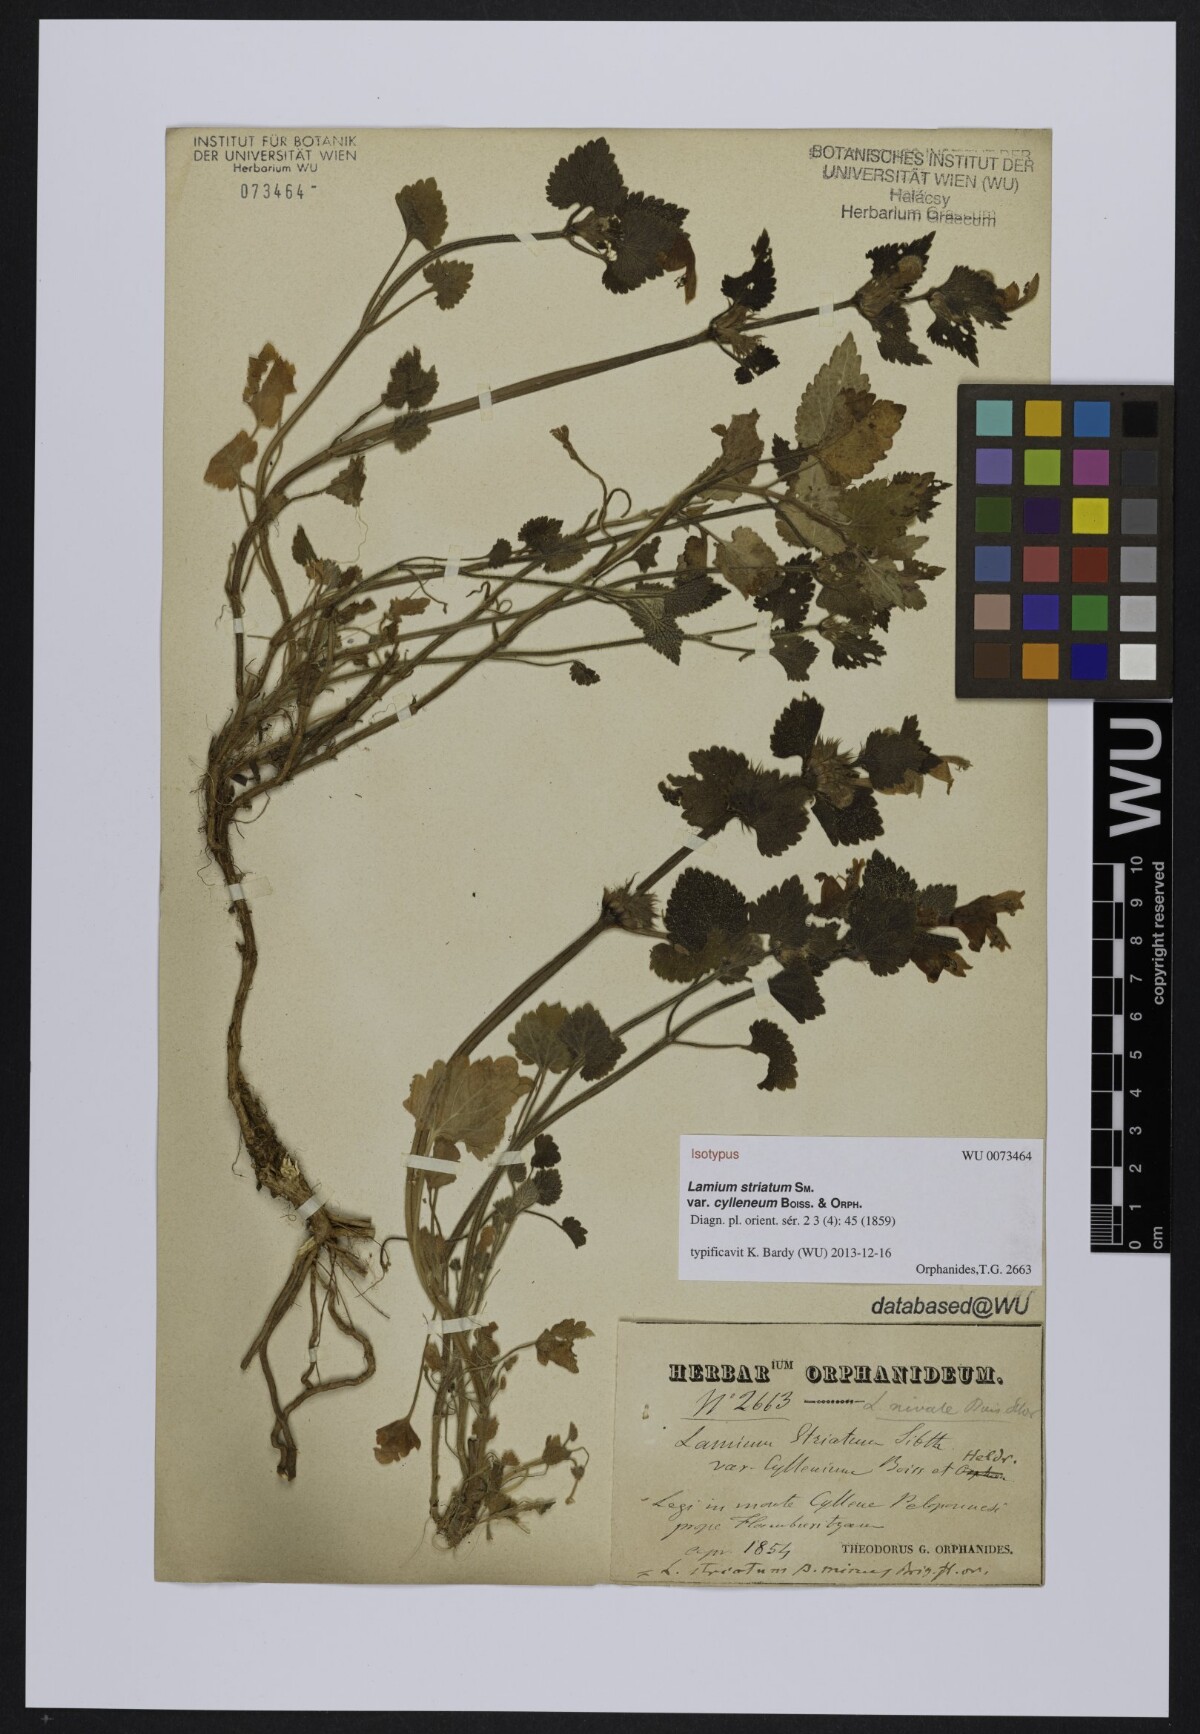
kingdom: Plantae
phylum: Tracheophyta
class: Magnoliopsida
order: Lamiales
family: Lamiaceae
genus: Lamium
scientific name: Lamium garganicum
